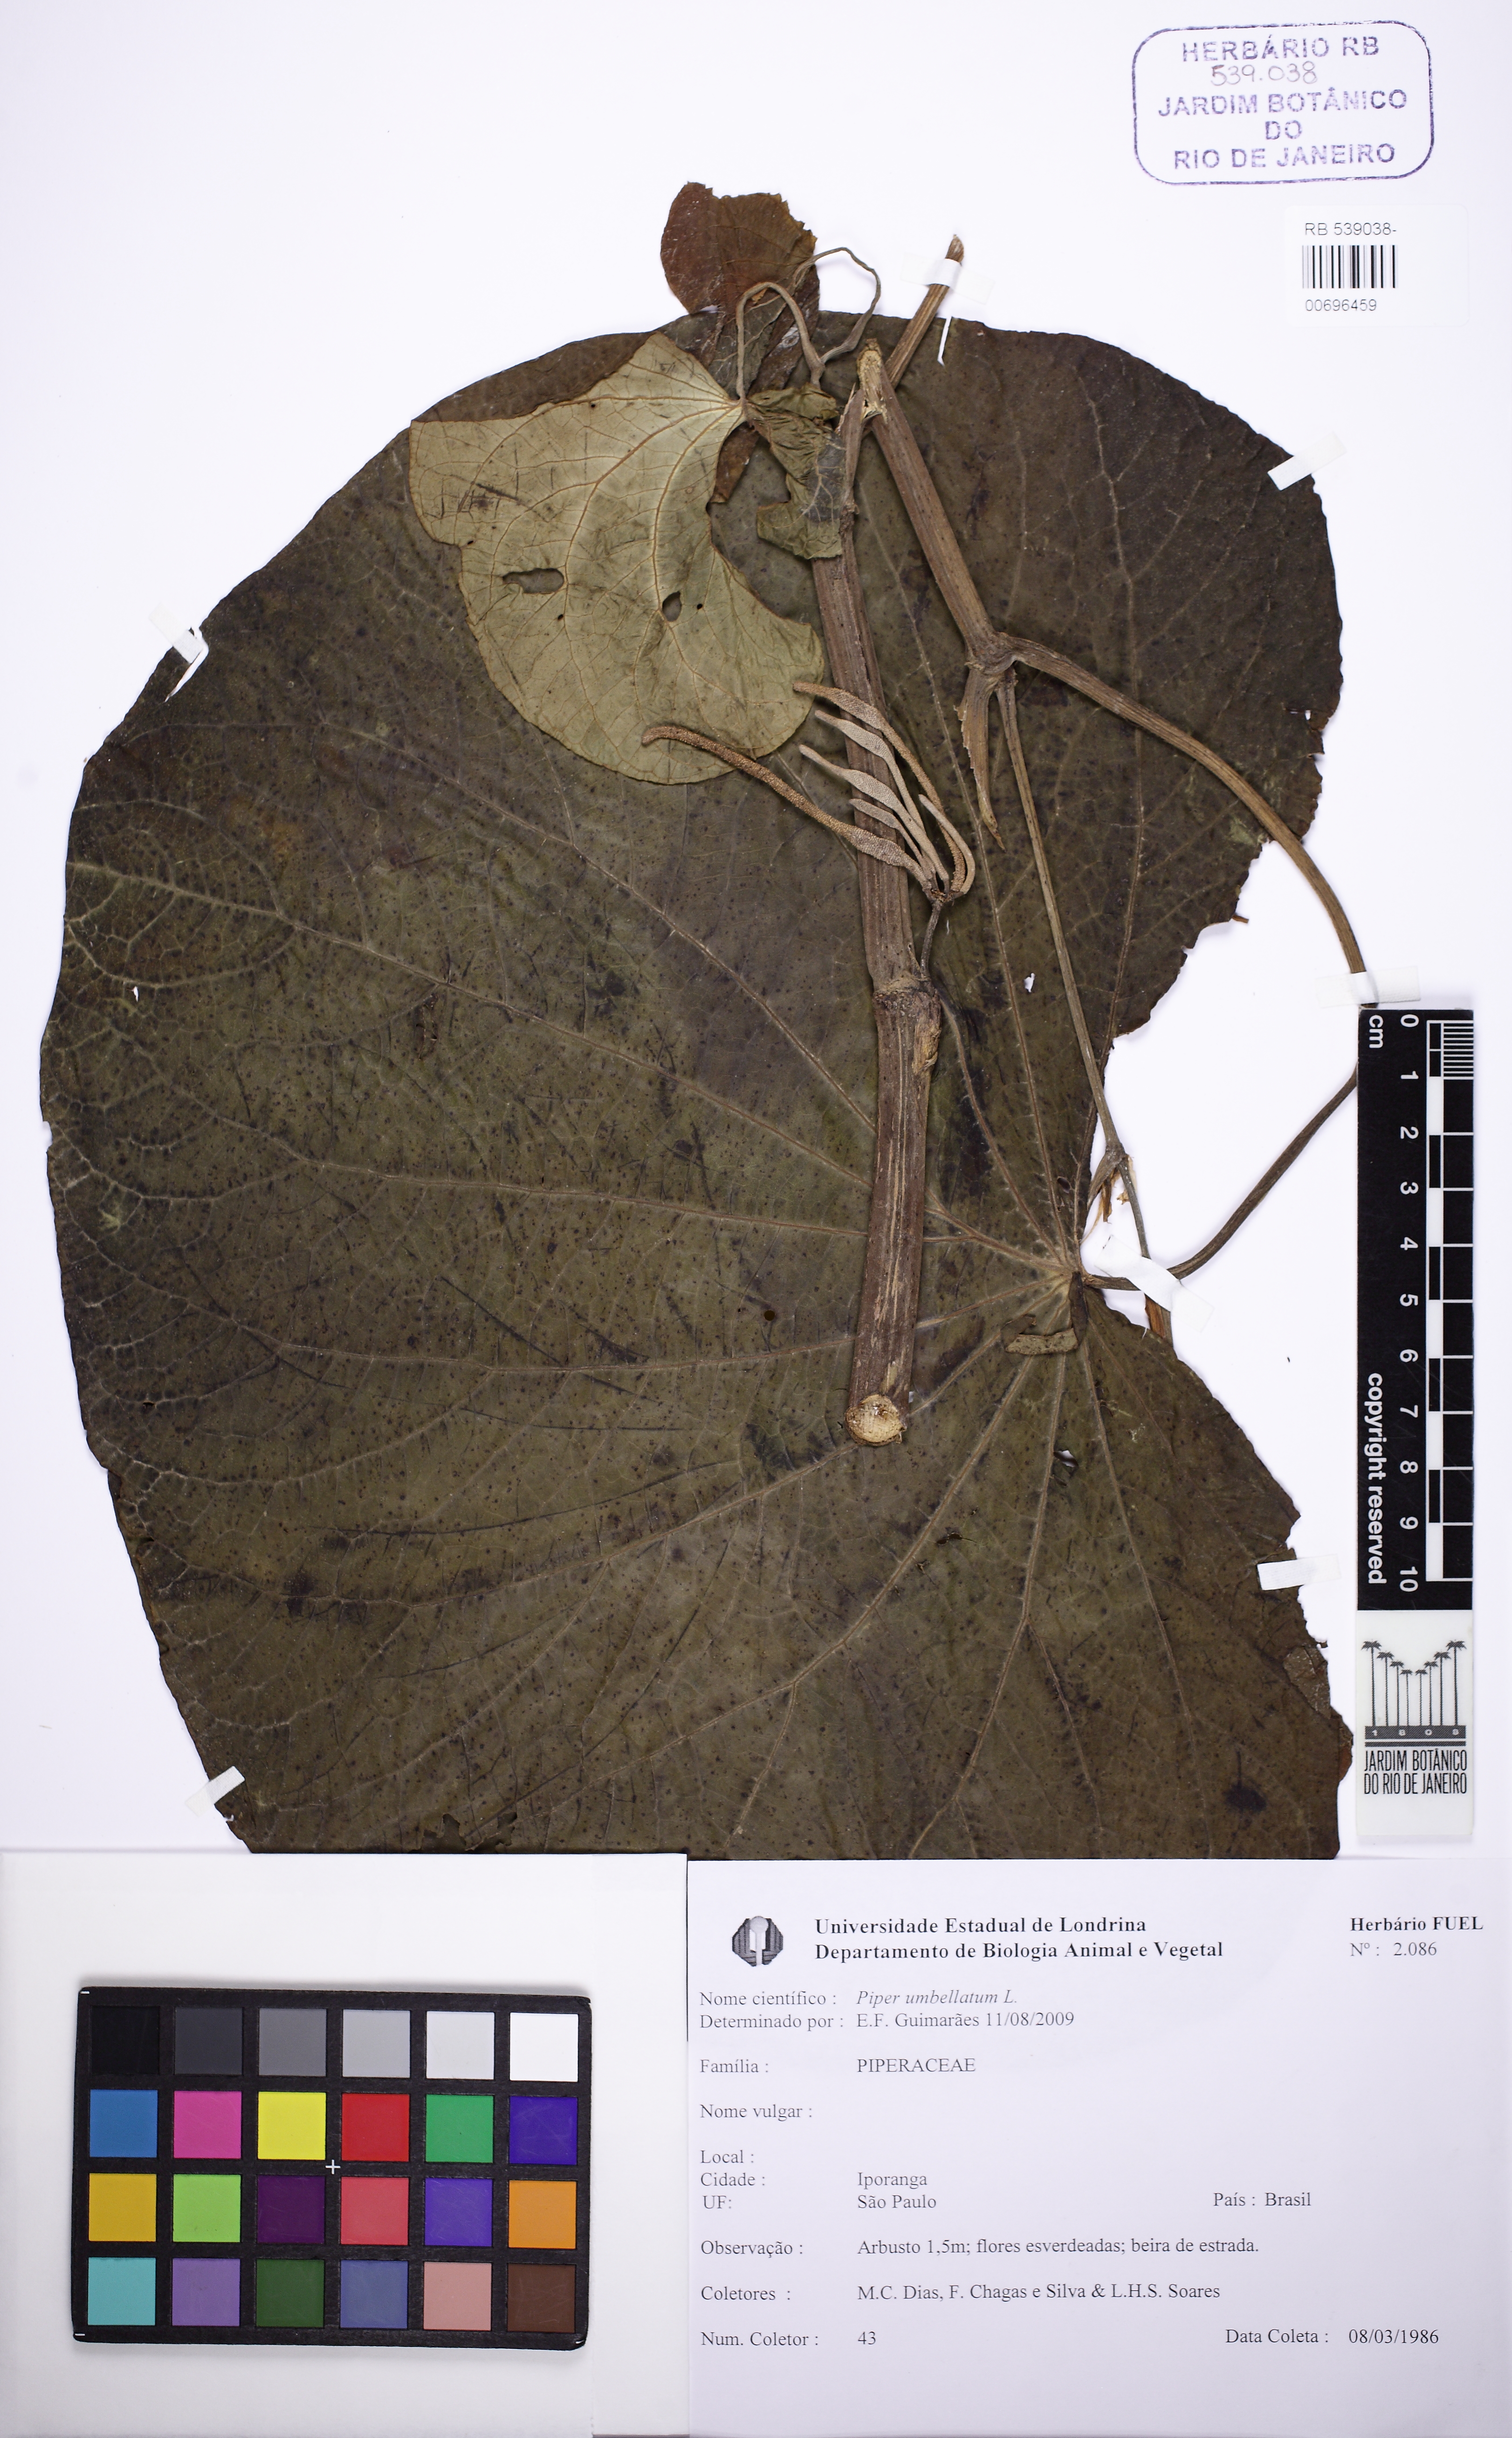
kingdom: Plantae
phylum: Tracheophyta
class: Magnoliopsida
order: Piperales
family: Piperaceae
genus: Piper
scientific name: Piper umbellatum
